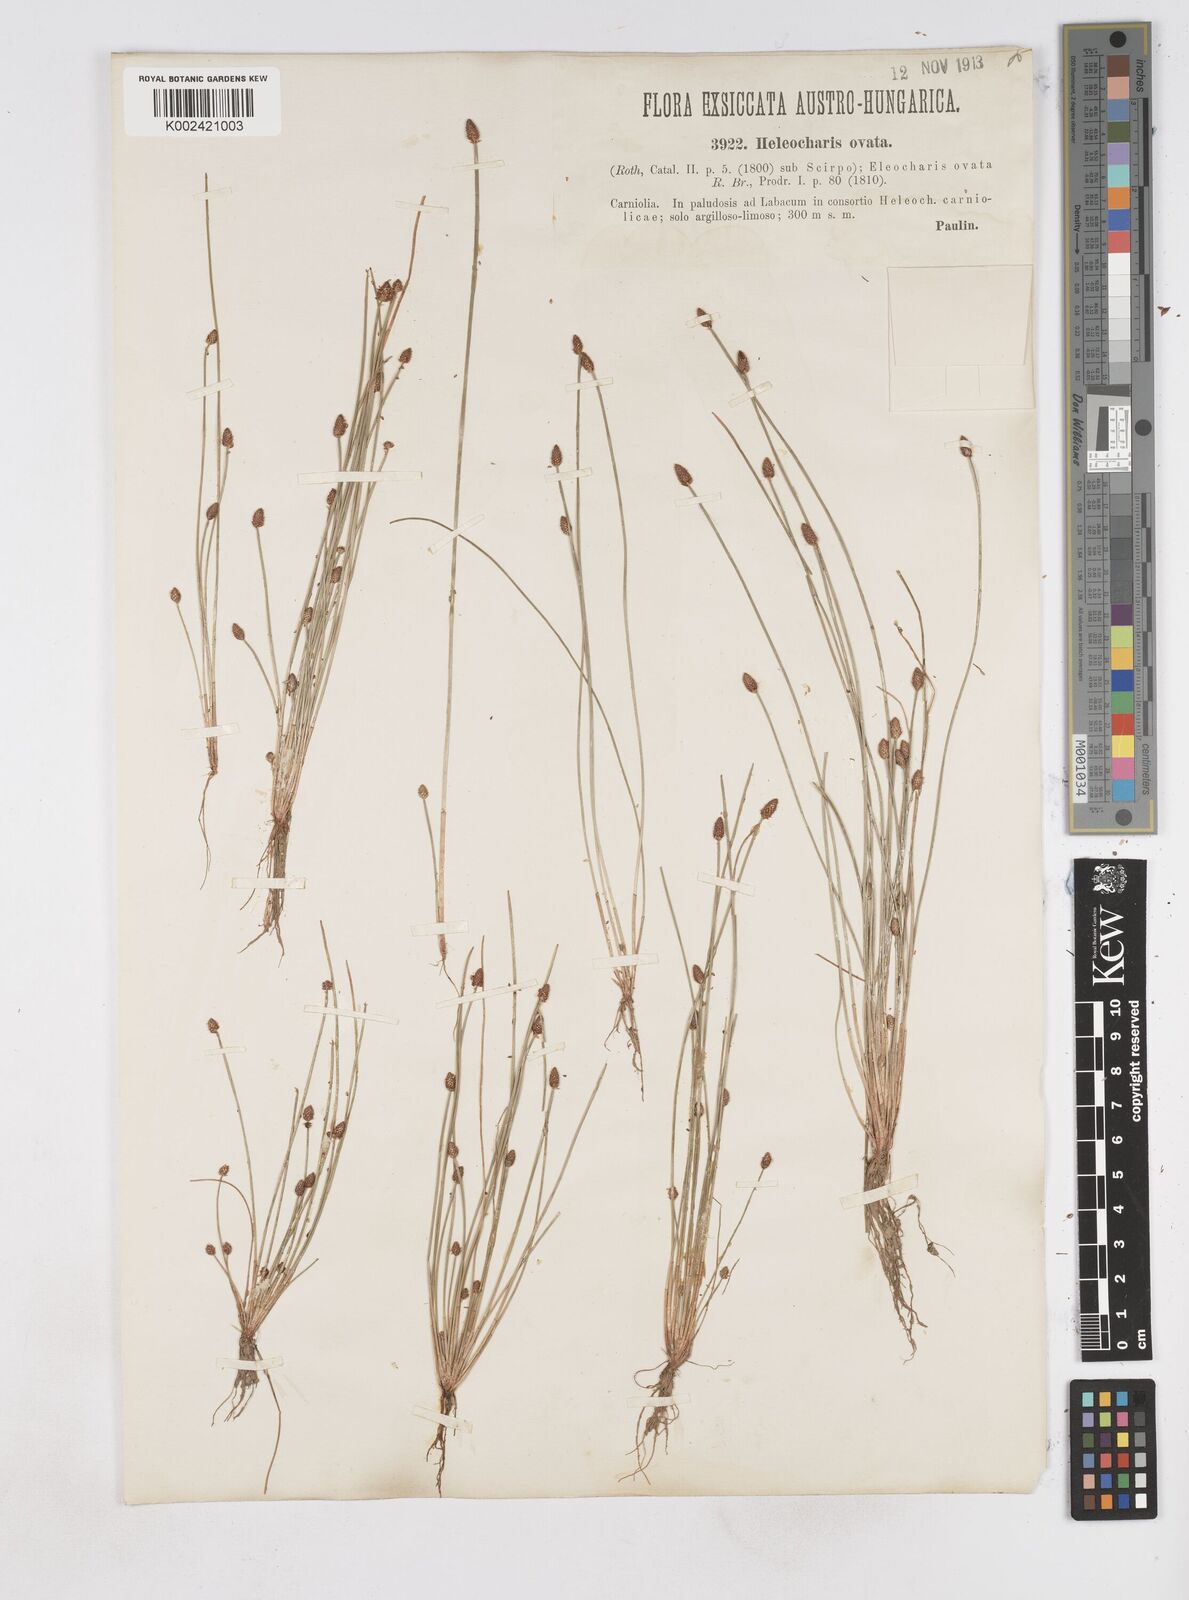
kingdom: Plantae
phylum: Tracheophyta
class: Liliopsida
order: Poales
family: Cyperaceae
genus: Eleocharis
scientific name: Eleocharis
